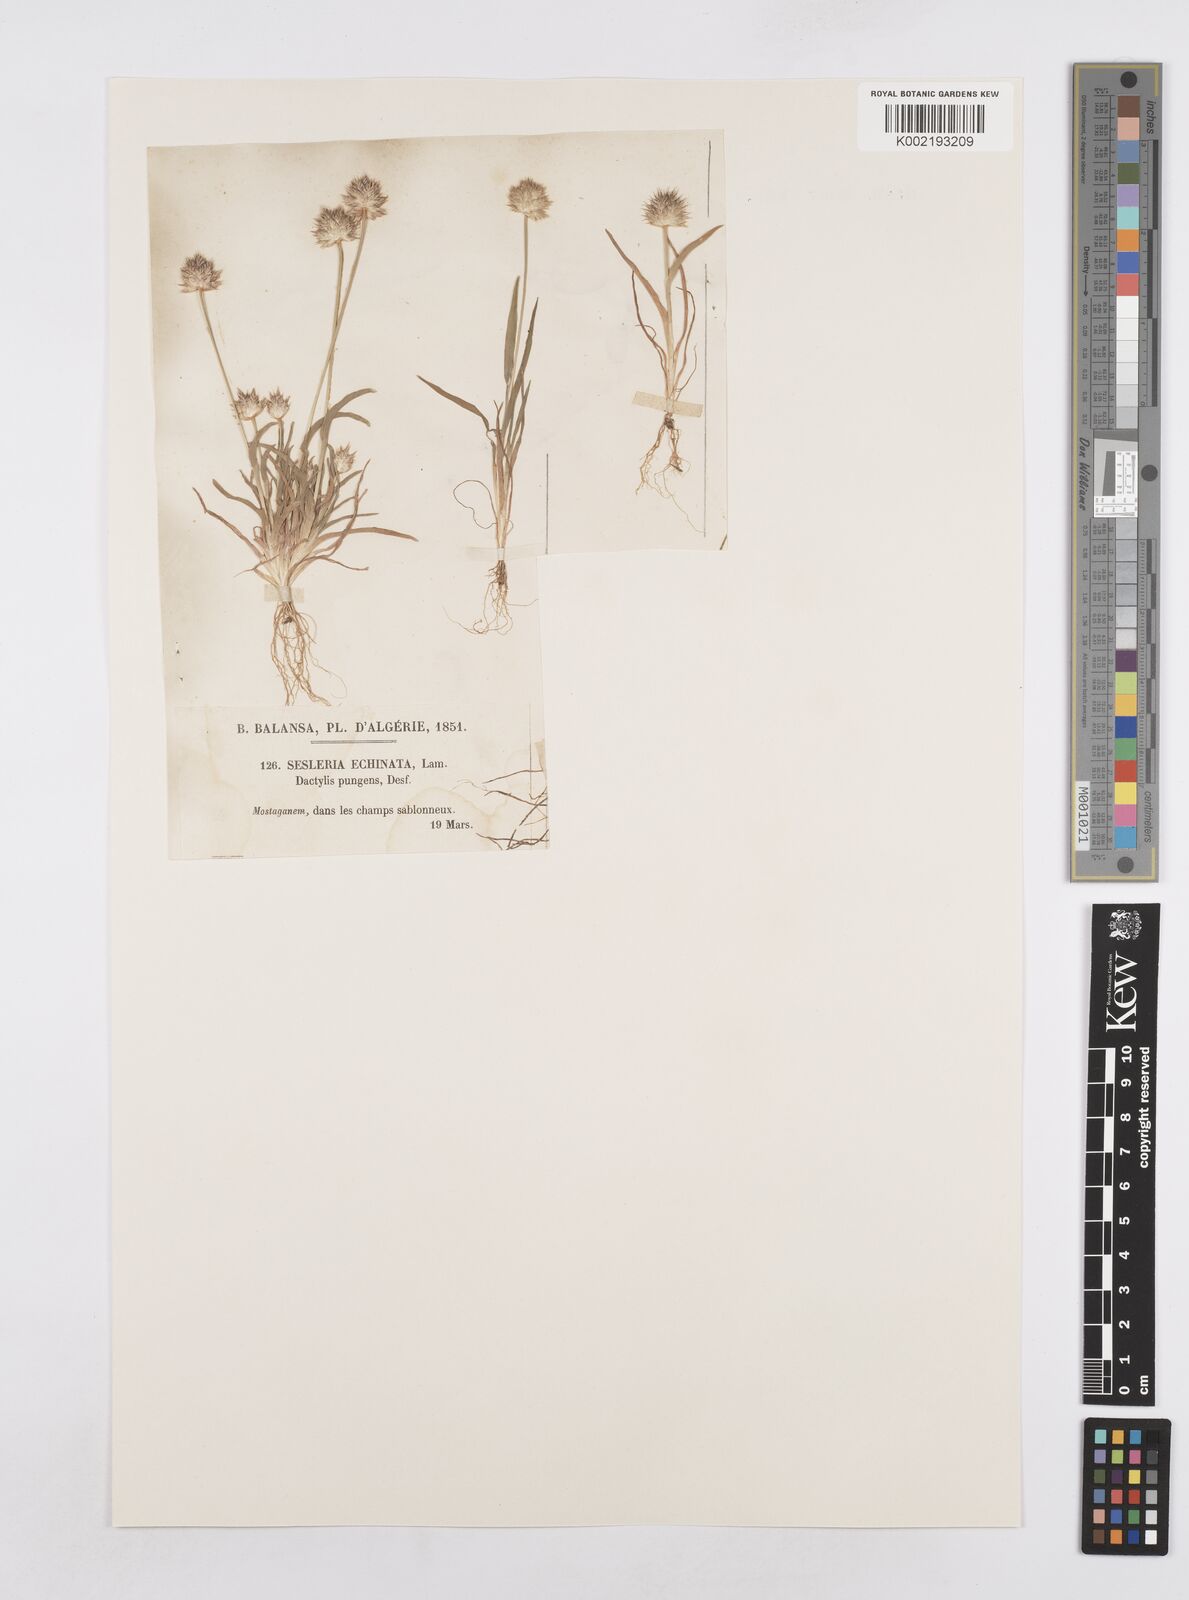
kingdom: Plantae
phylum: Tracheophyta
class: Liliopsida
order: Poales
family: Poaceae
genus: Ammochloa
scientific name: Ammochloa pungens
